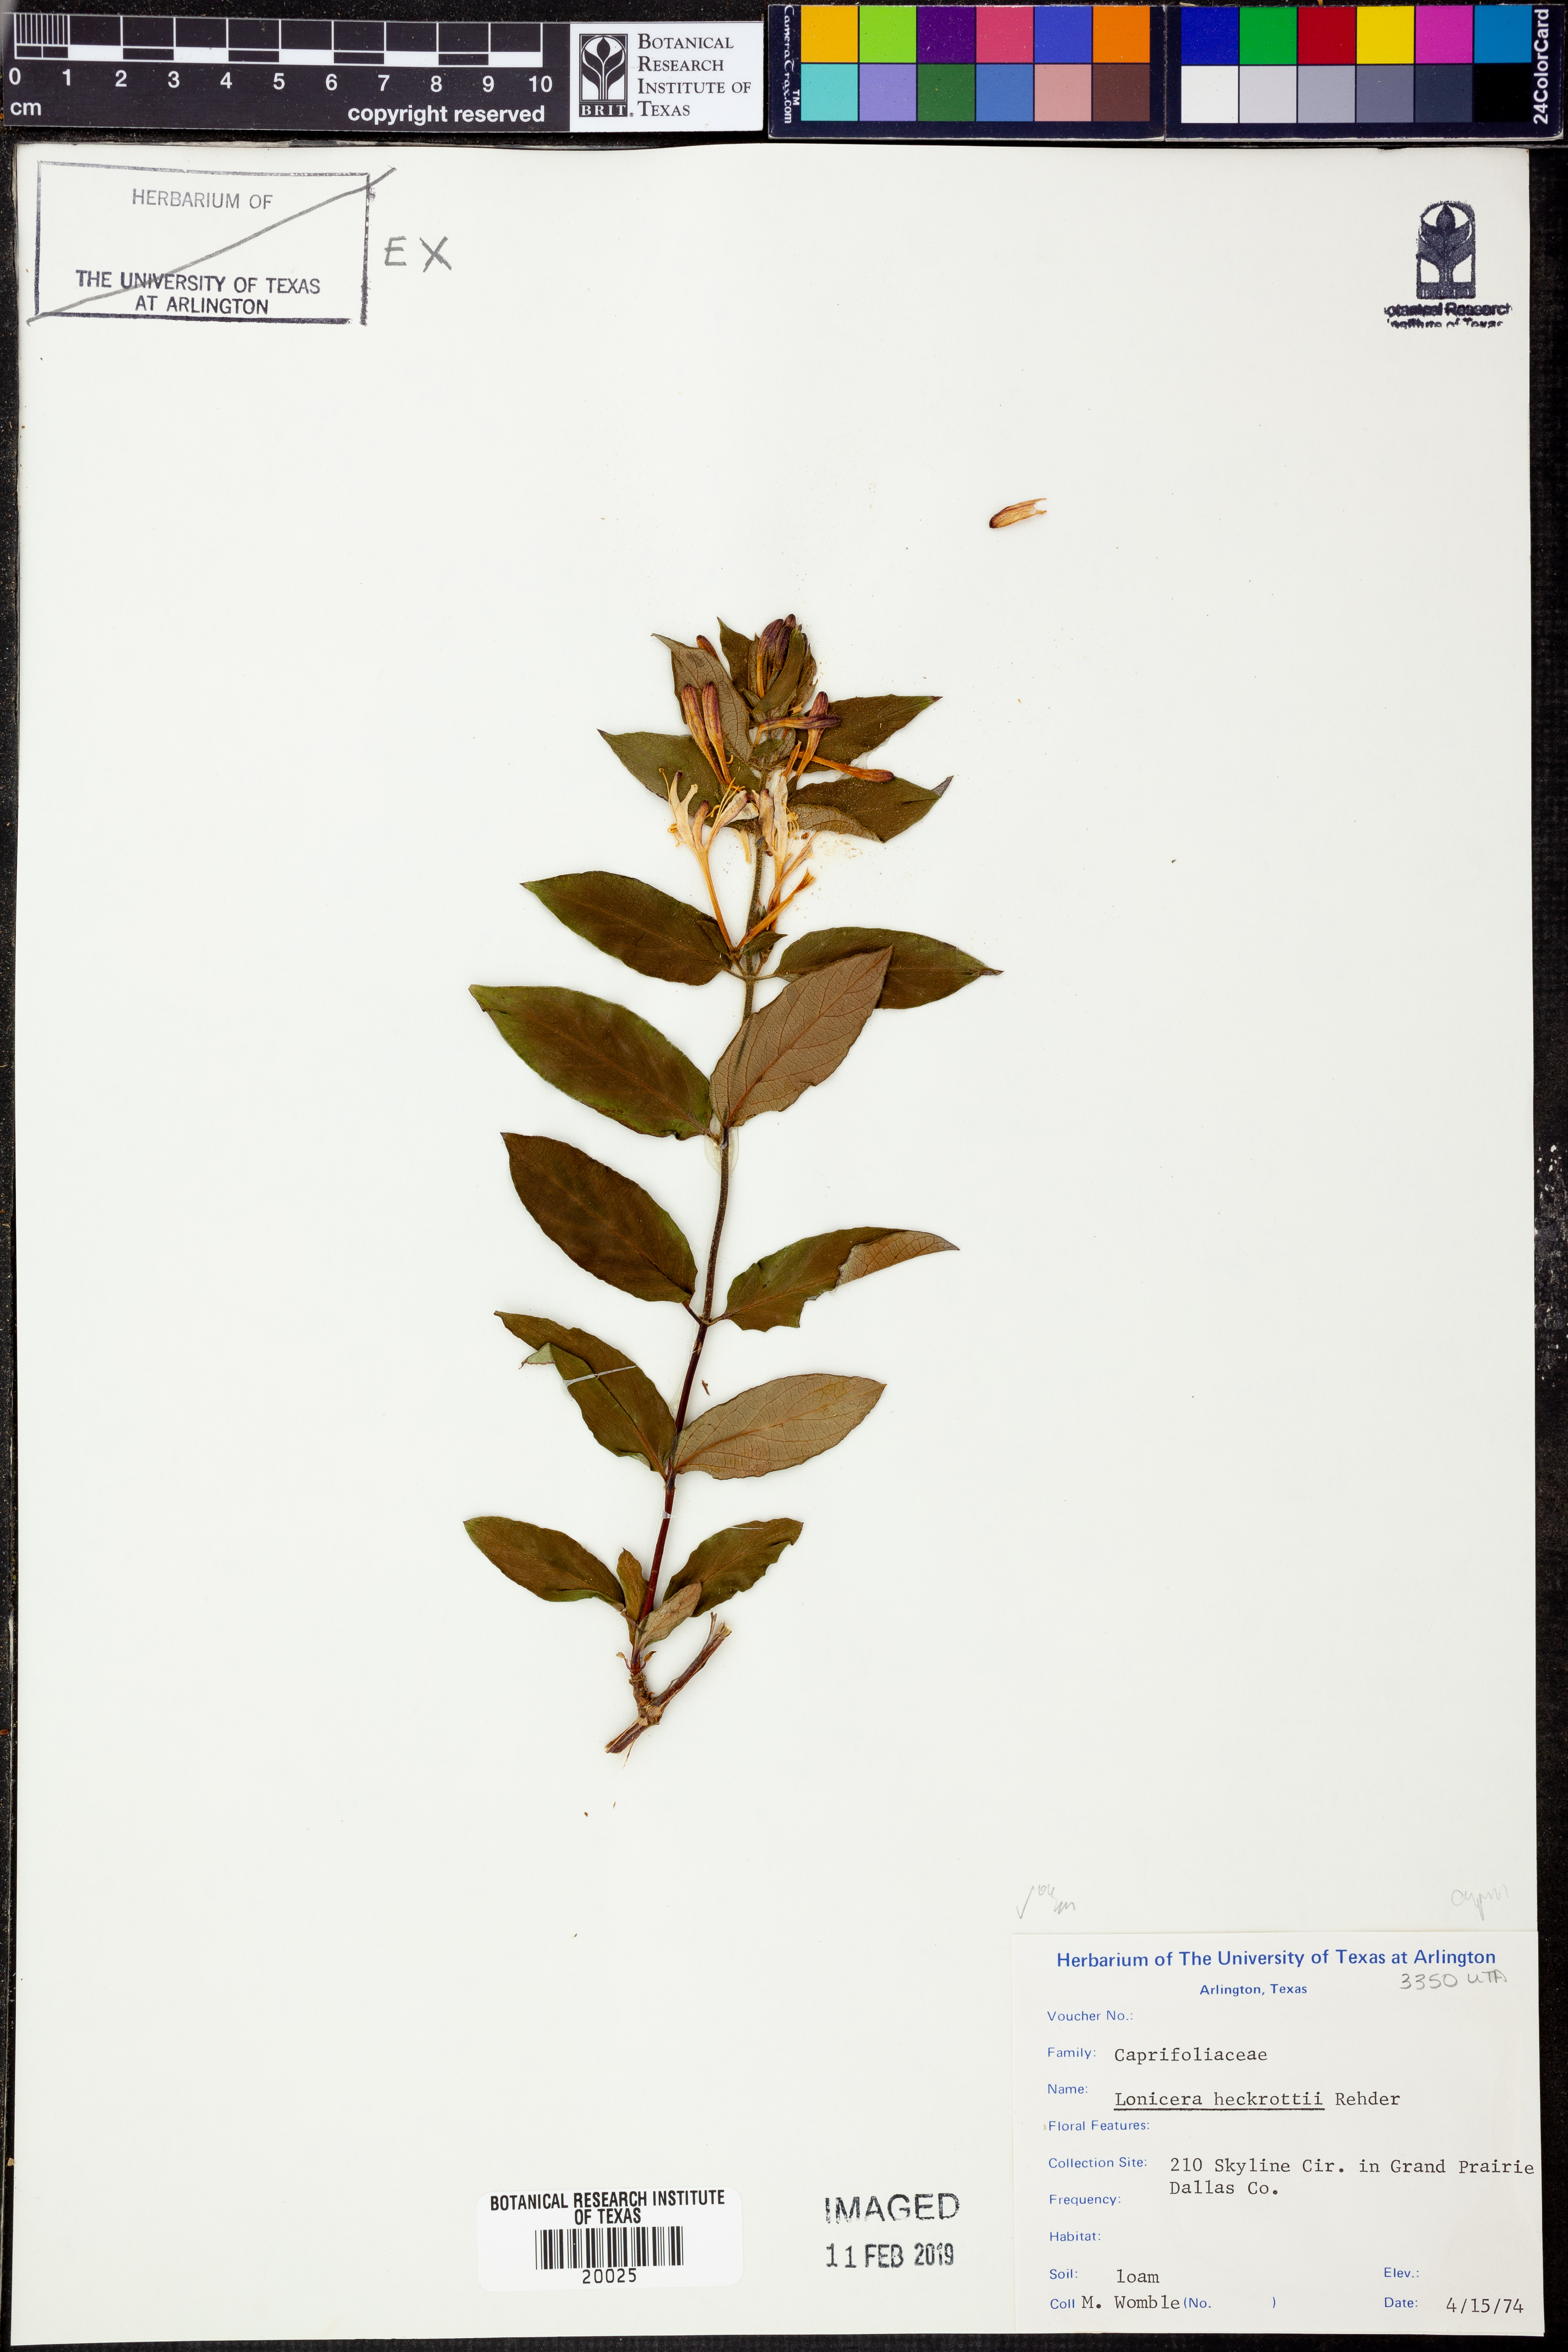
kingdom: Plantae
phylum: Tracheophyta
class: Magnoliopsida
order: Dipsacales
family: Caprifoliaceae
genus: Lonicera
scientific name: Lonicera heckrottii
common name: Honeysuckle
